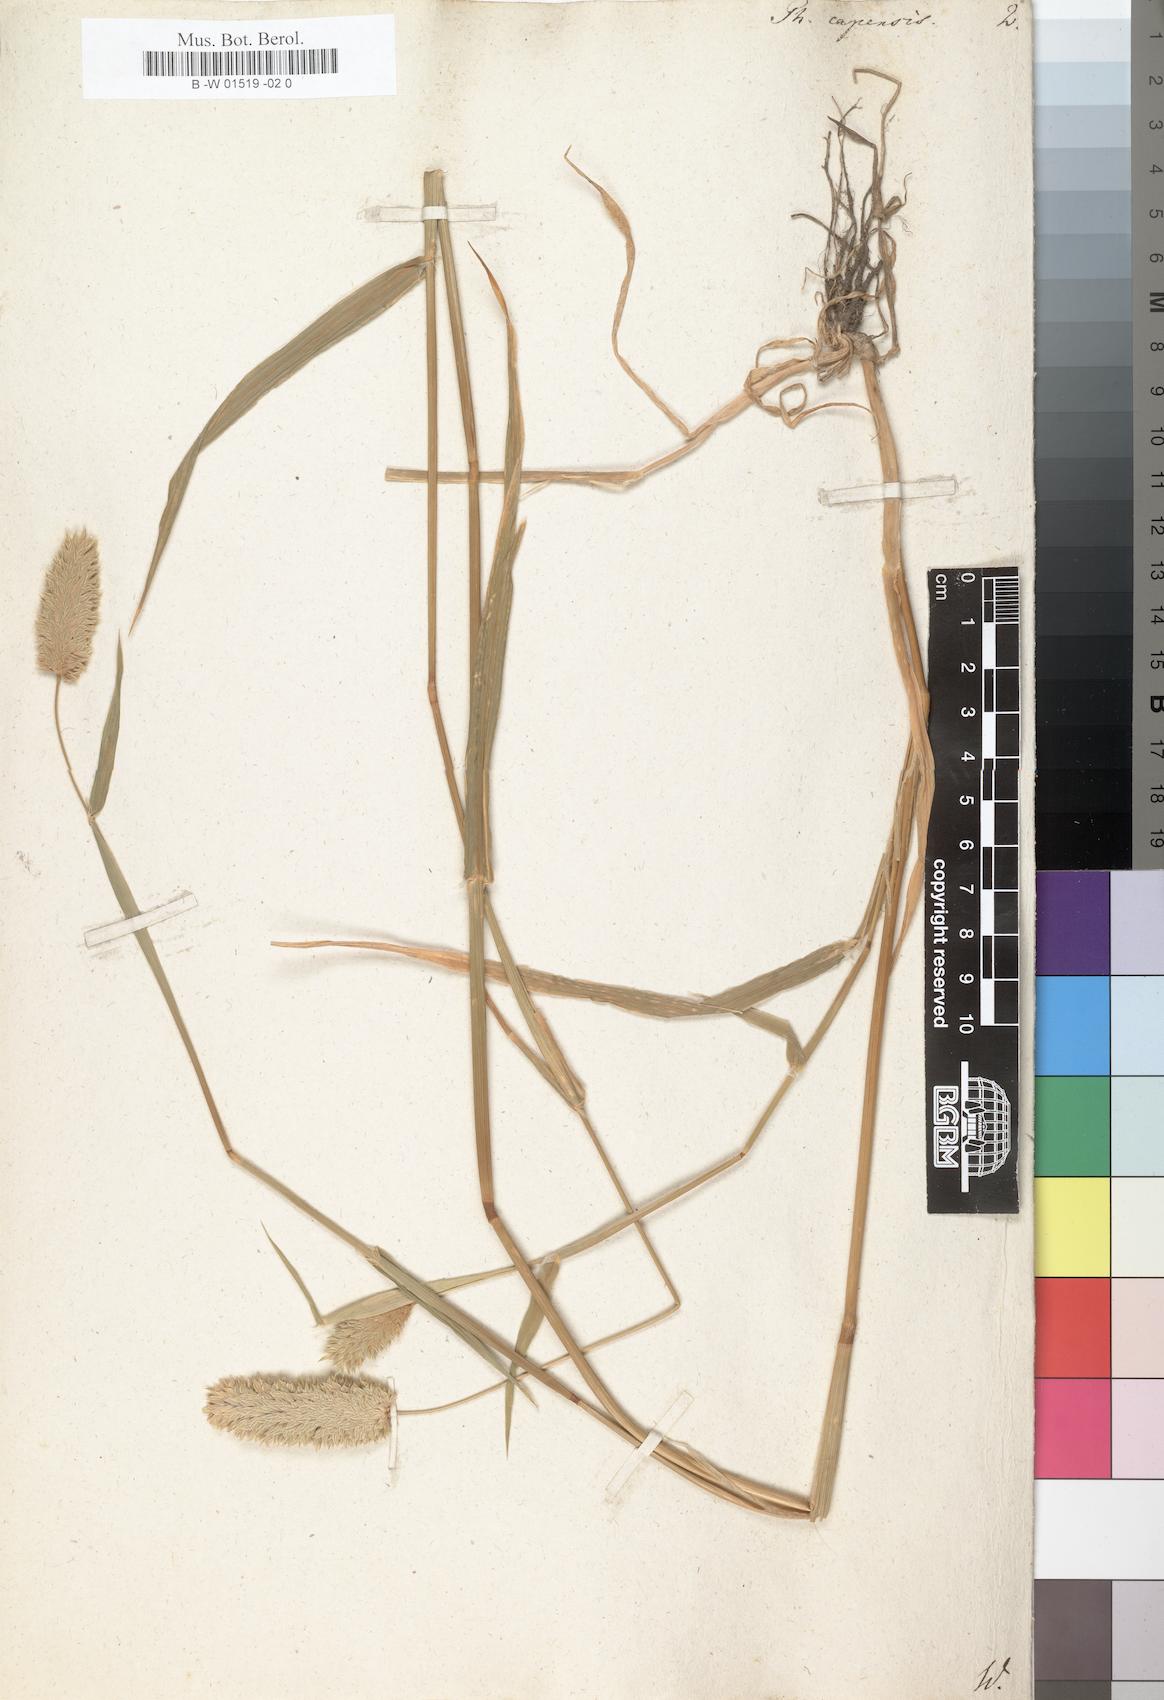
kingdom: Plantae
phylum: Tracheophyta
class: Liliopsida
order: Poales
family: Poaceae
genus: Phalaris
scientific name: Phalaris minor
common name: Littleseed canarygrass
